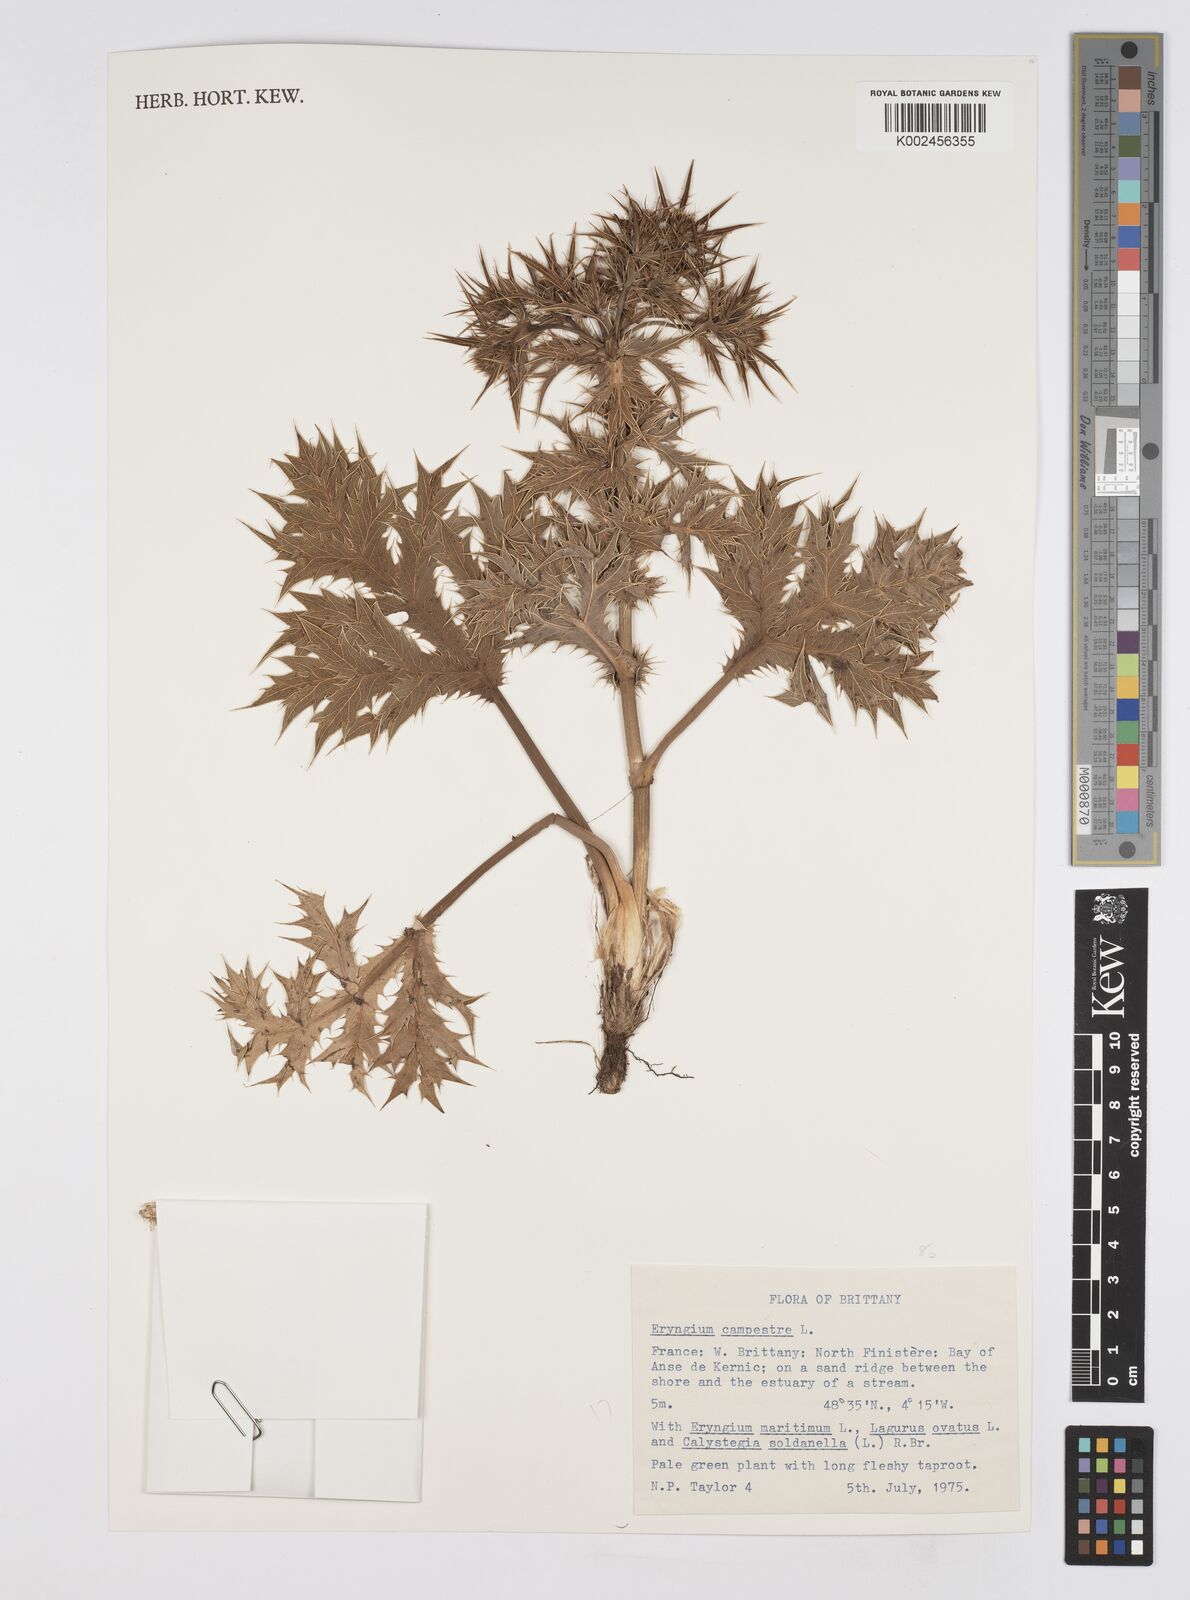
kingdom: Plantae
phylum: Tracheophyta
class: Magnoliopsida
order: Apiales
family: Apiaceae
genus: Eryngium
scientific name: Eryngium campestre
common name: Field eryngo
